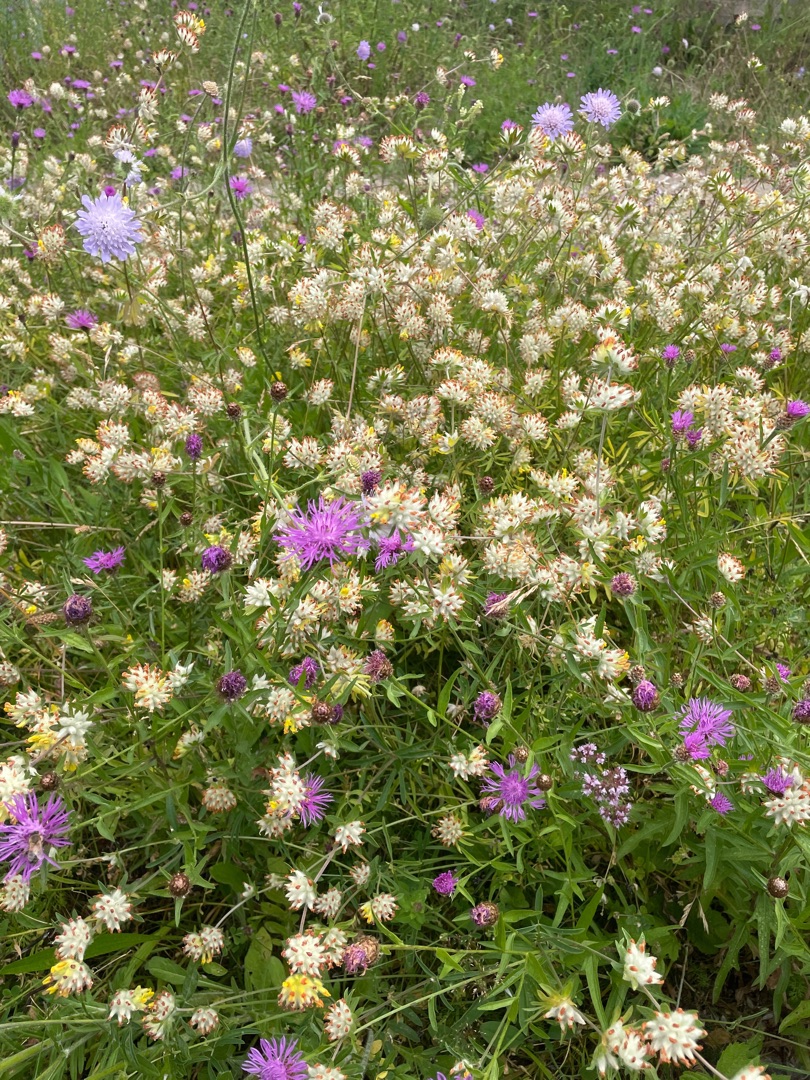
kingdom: Plantae
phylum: Tracheophyta
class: Magnoliopsida
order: Asterales
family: Asteraceae
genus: Centaurea
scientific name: Centaurea jacea
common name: Almindelig knopurt
